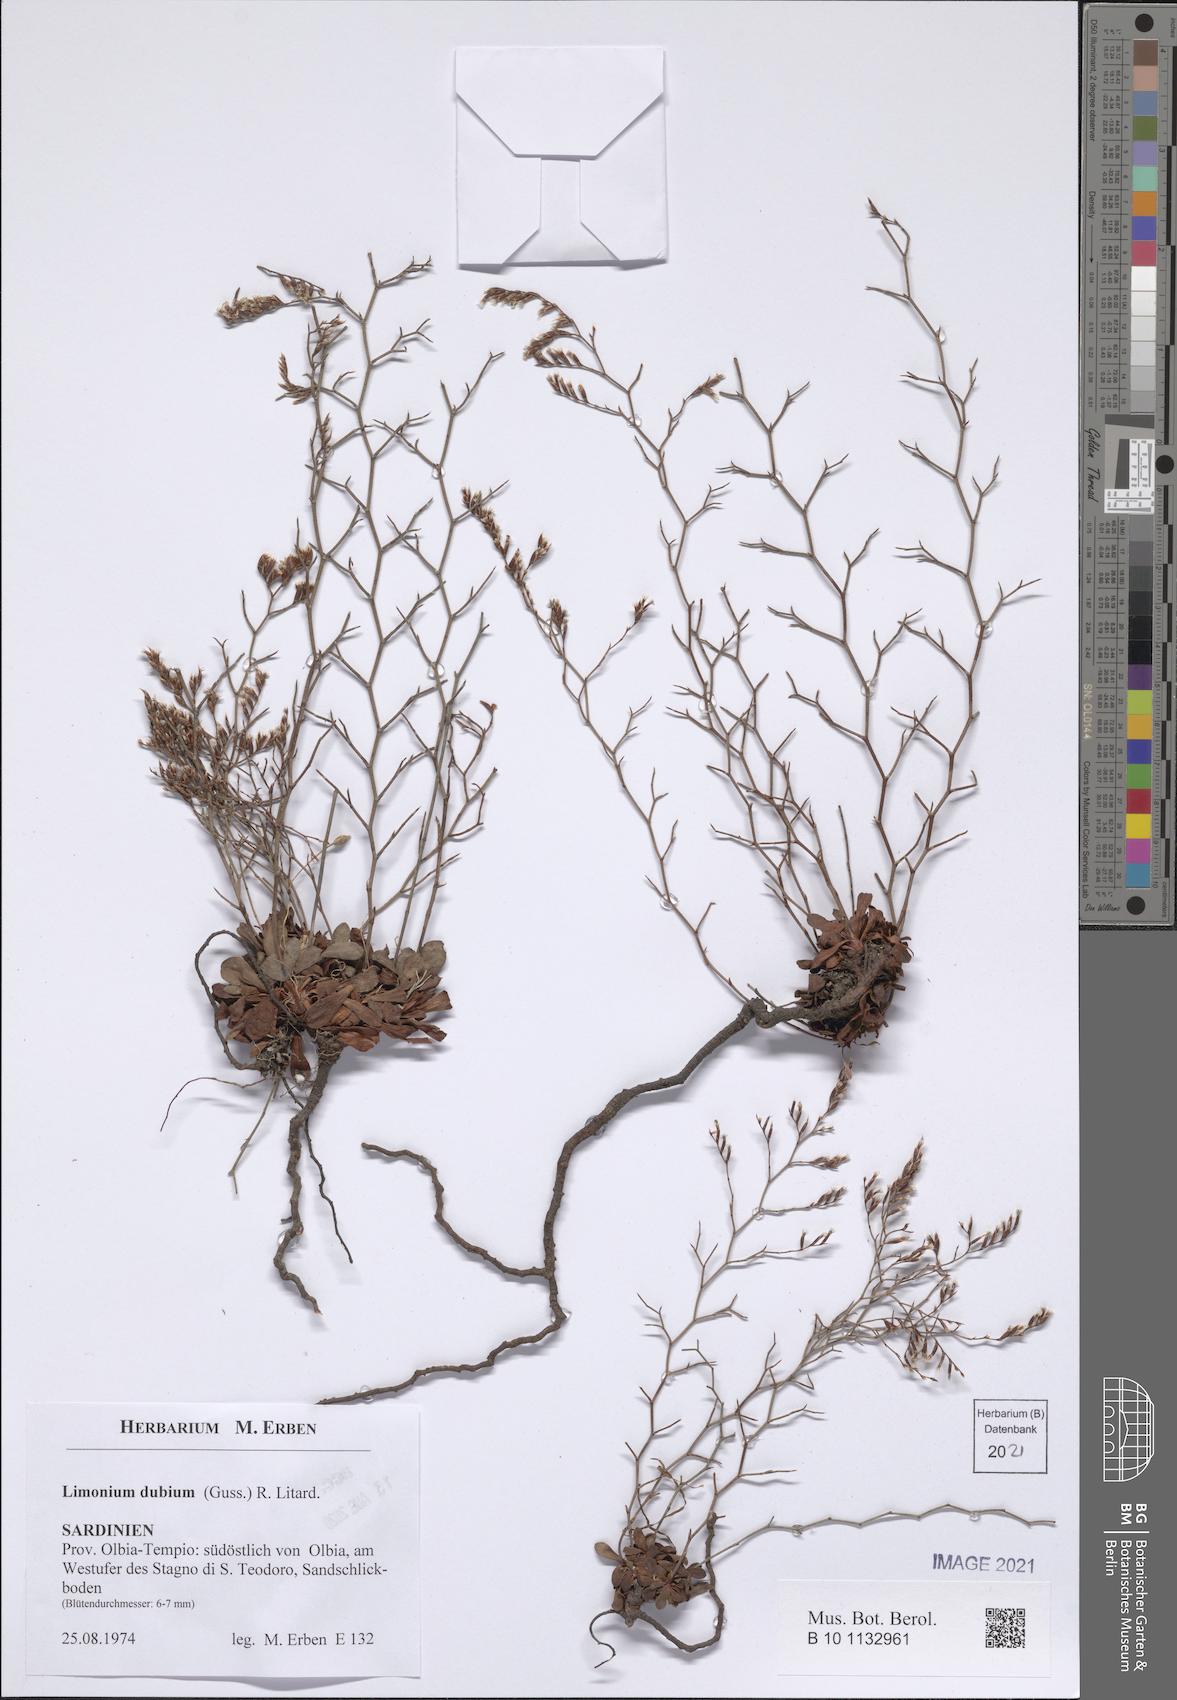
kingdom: Plantae
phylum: Tracheophyta
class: Magnoliopsida
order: Caryophyllales
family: Plumbaginaceae
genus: Limonium
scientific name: Limonium dubium
